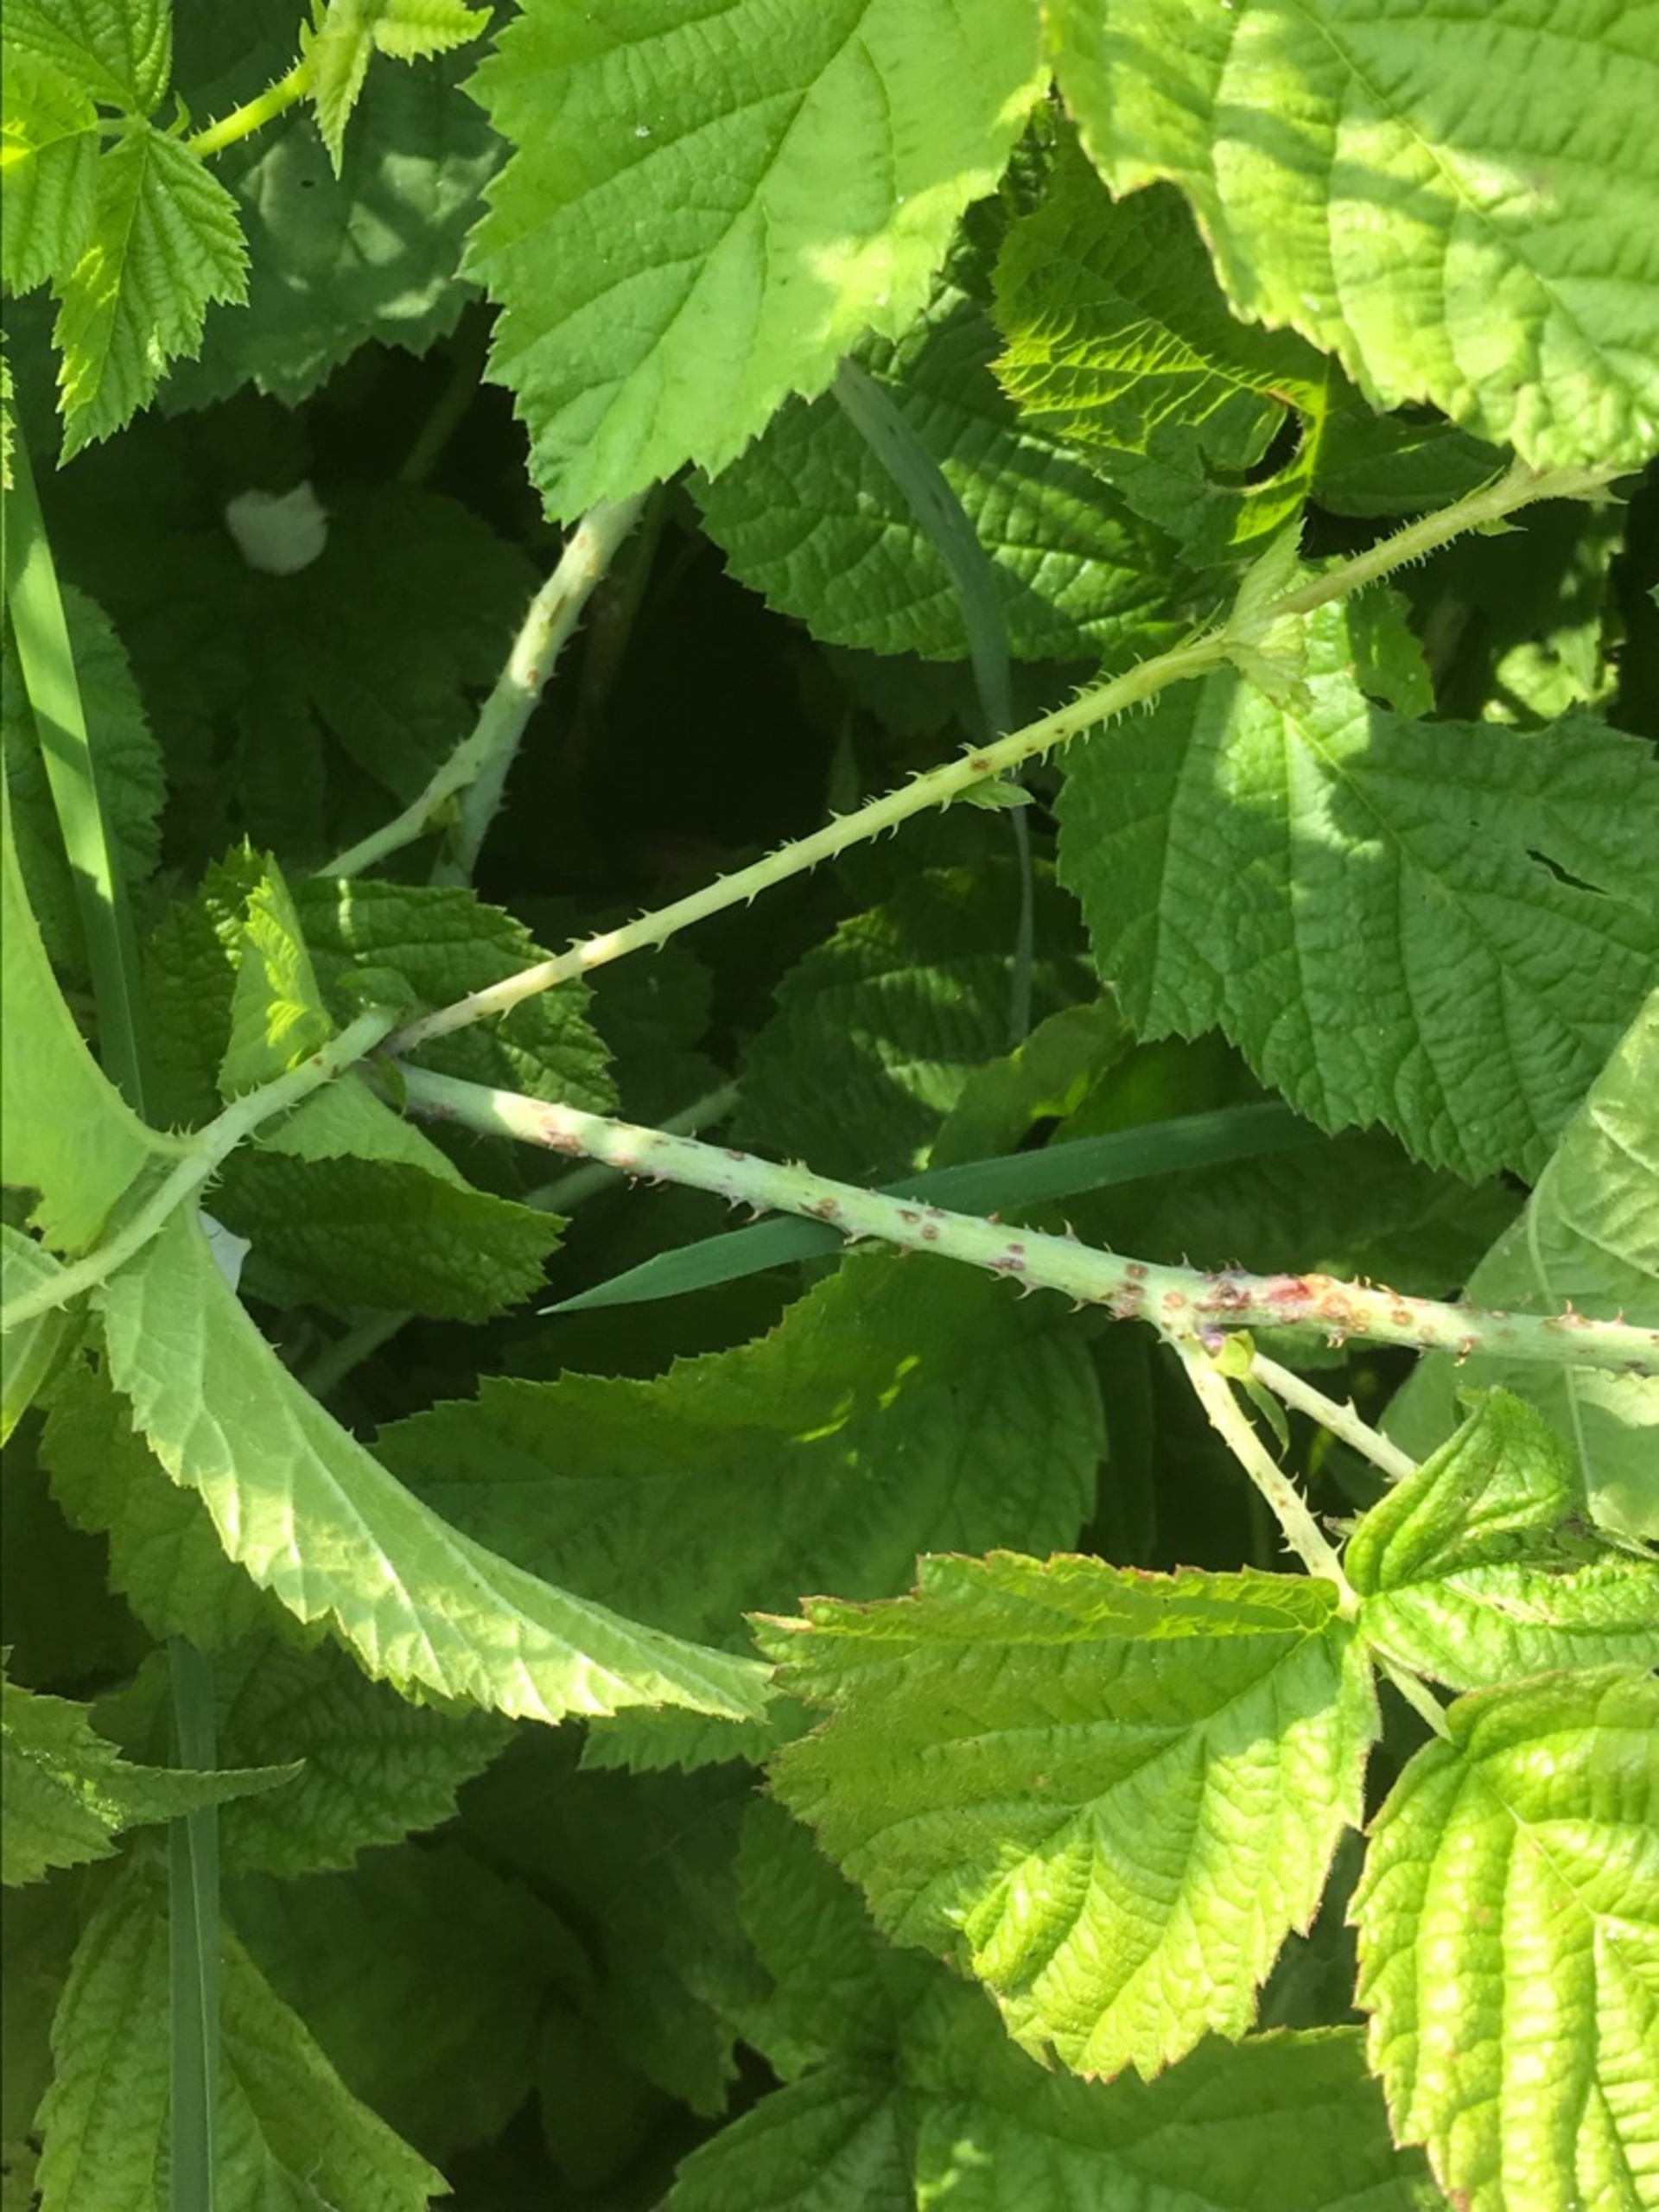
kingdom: Plantae
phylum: Tracheophyta
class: Magnoliopsida
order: Rosales
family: Rosaceae
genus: Rubus
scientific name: Rubus caesius
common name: Korbær
